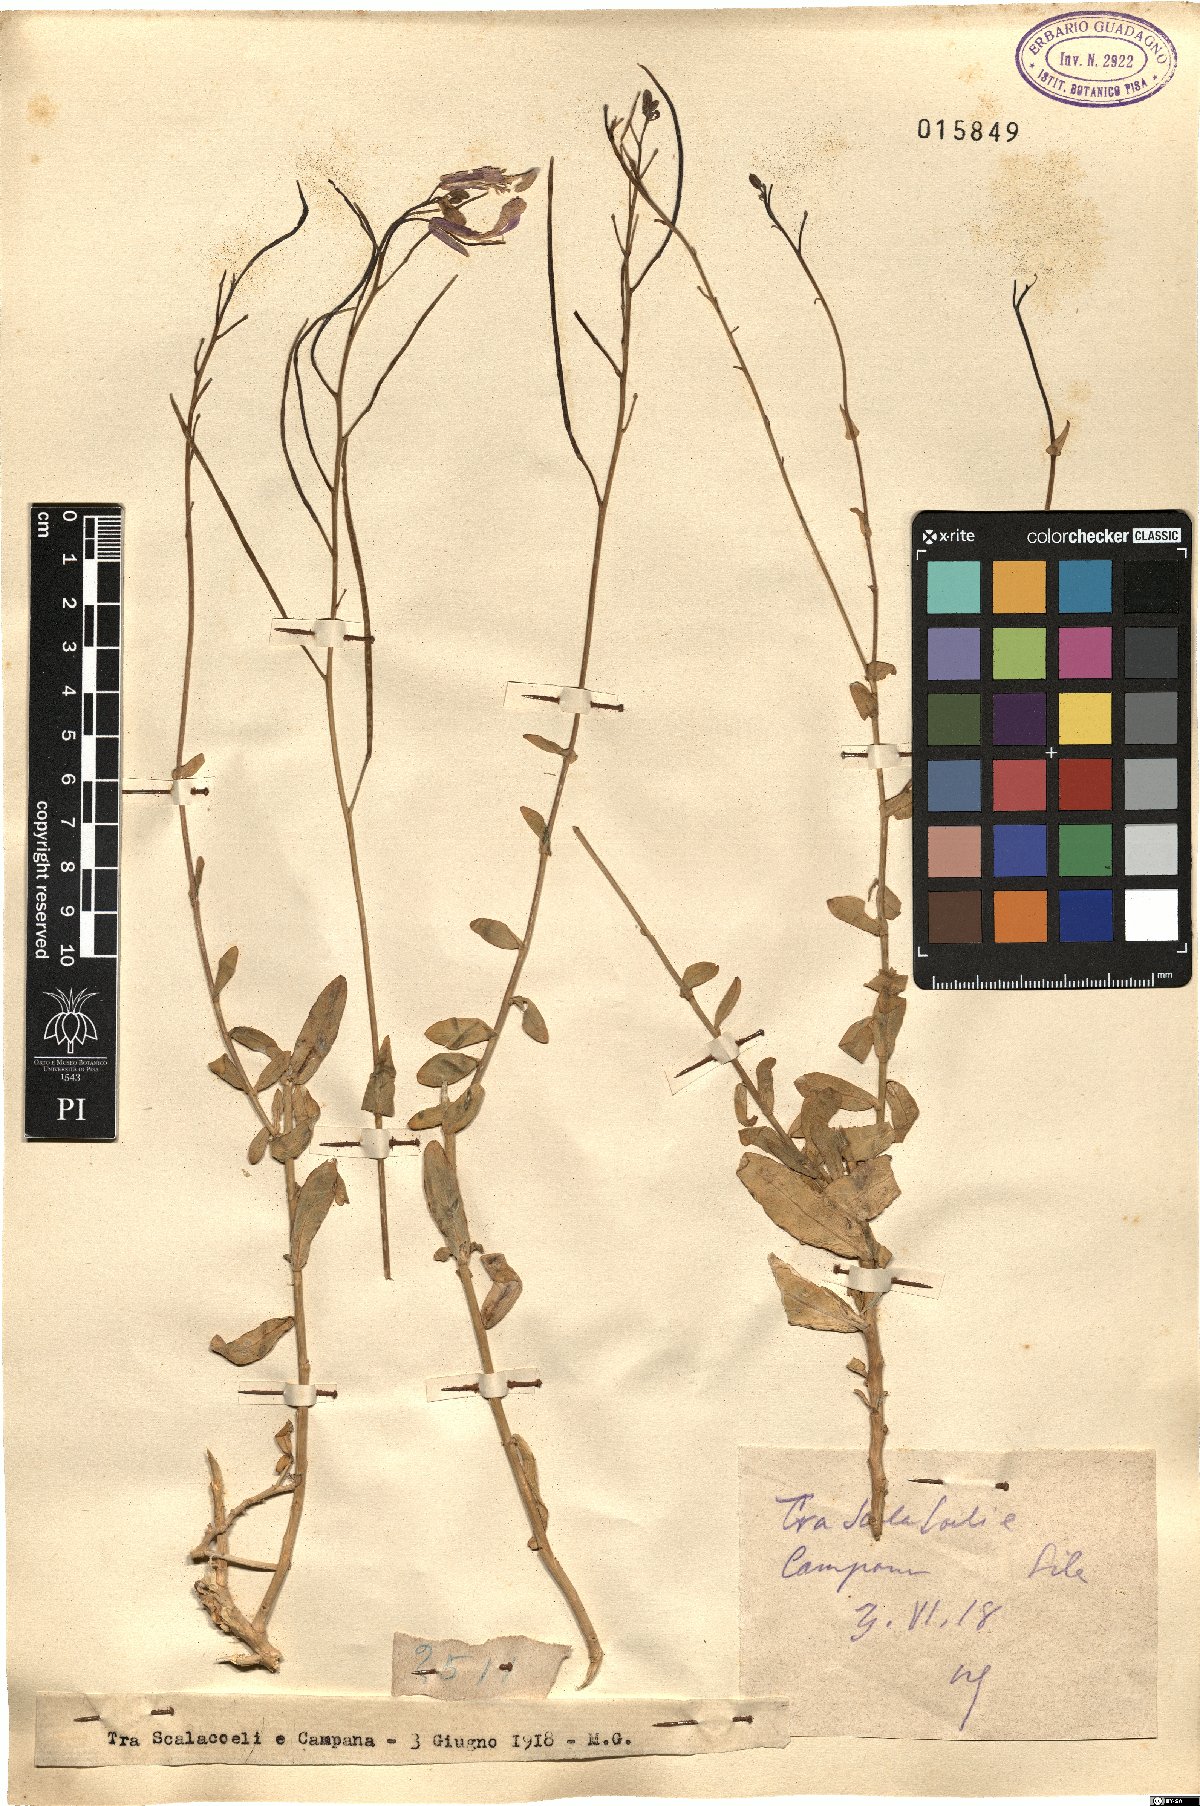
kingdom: Plantae
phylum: Tracheophyta
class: Magnoliopsida
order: Brassicales
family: Brassicaceae
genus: Moricandia
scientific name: Moricandia
